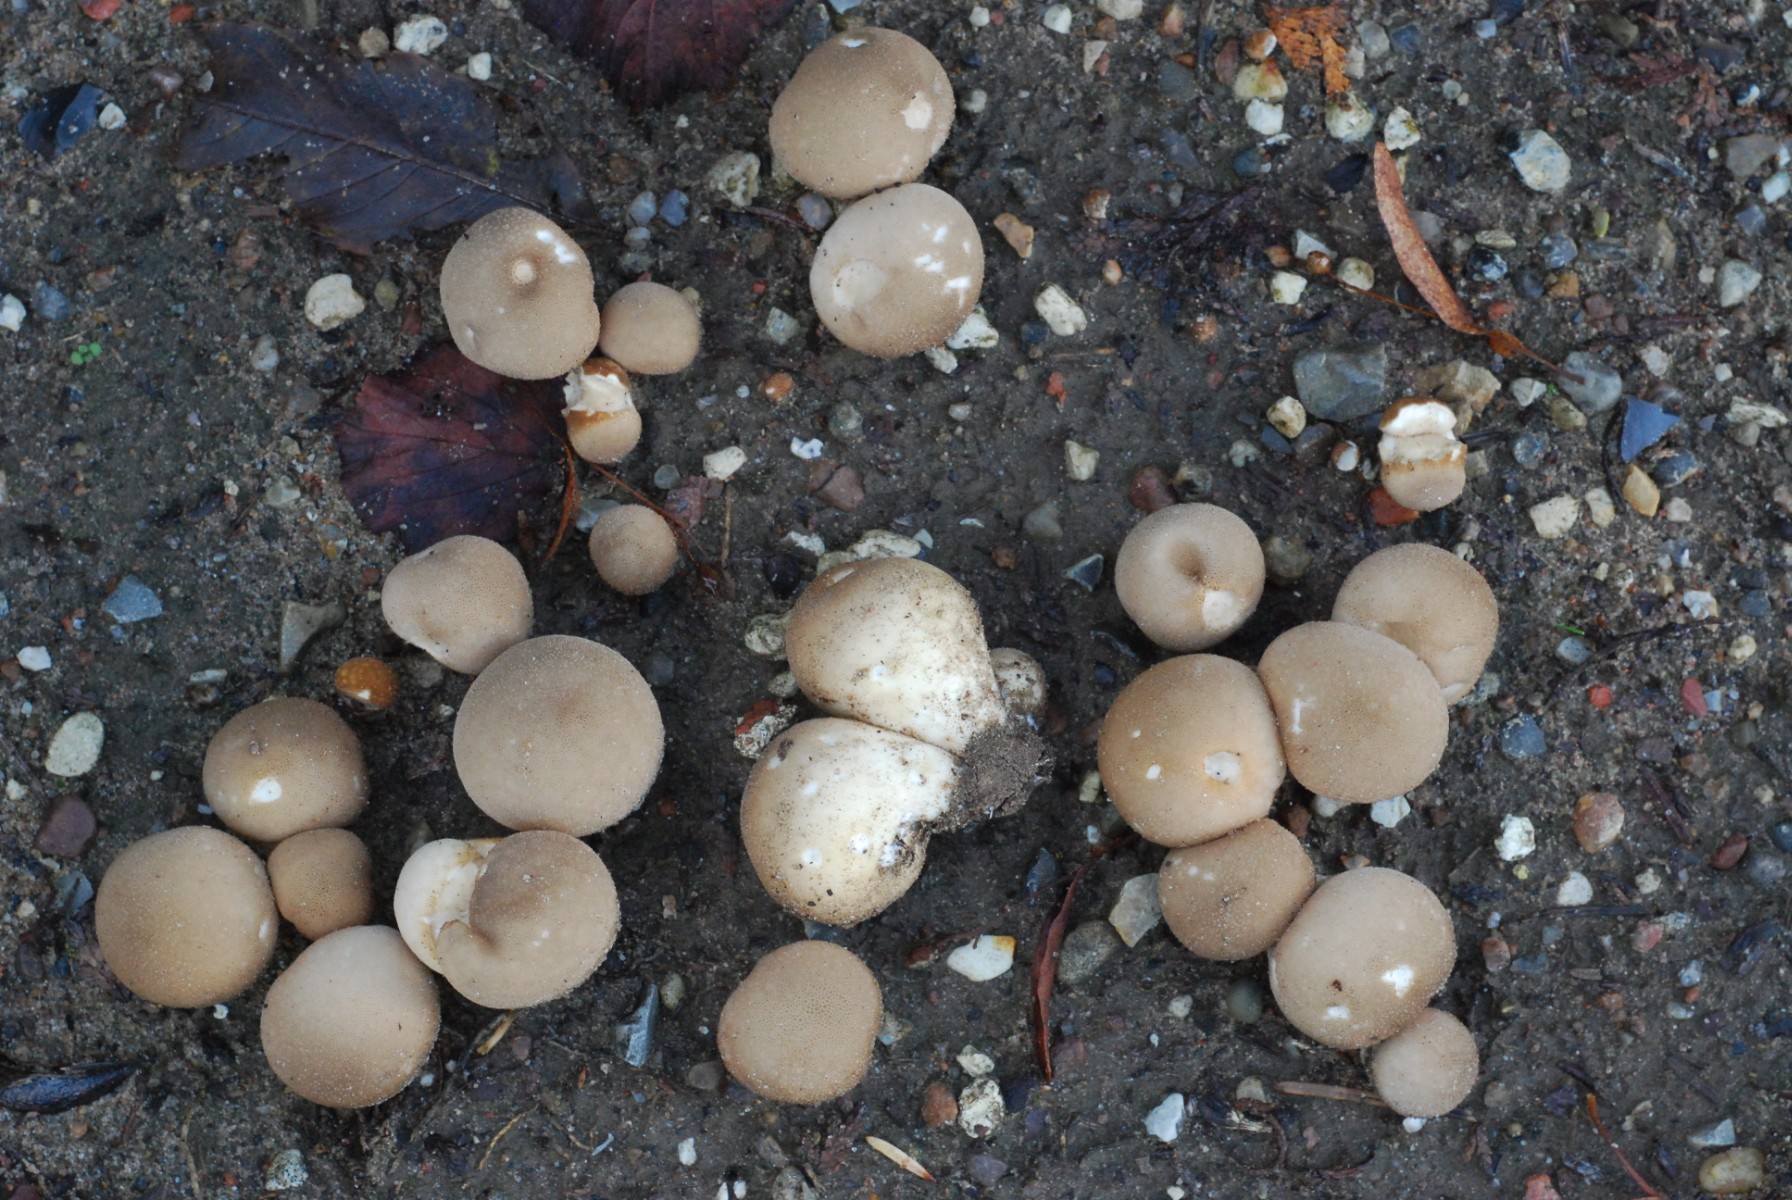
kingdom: Fungi
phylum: Basidiomycota
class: Agaricomycetes
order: Agaricales
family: Lycoperdaceae
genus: Apioperdon
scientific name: Apioperdon pyriforme
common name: pære-støvbold
